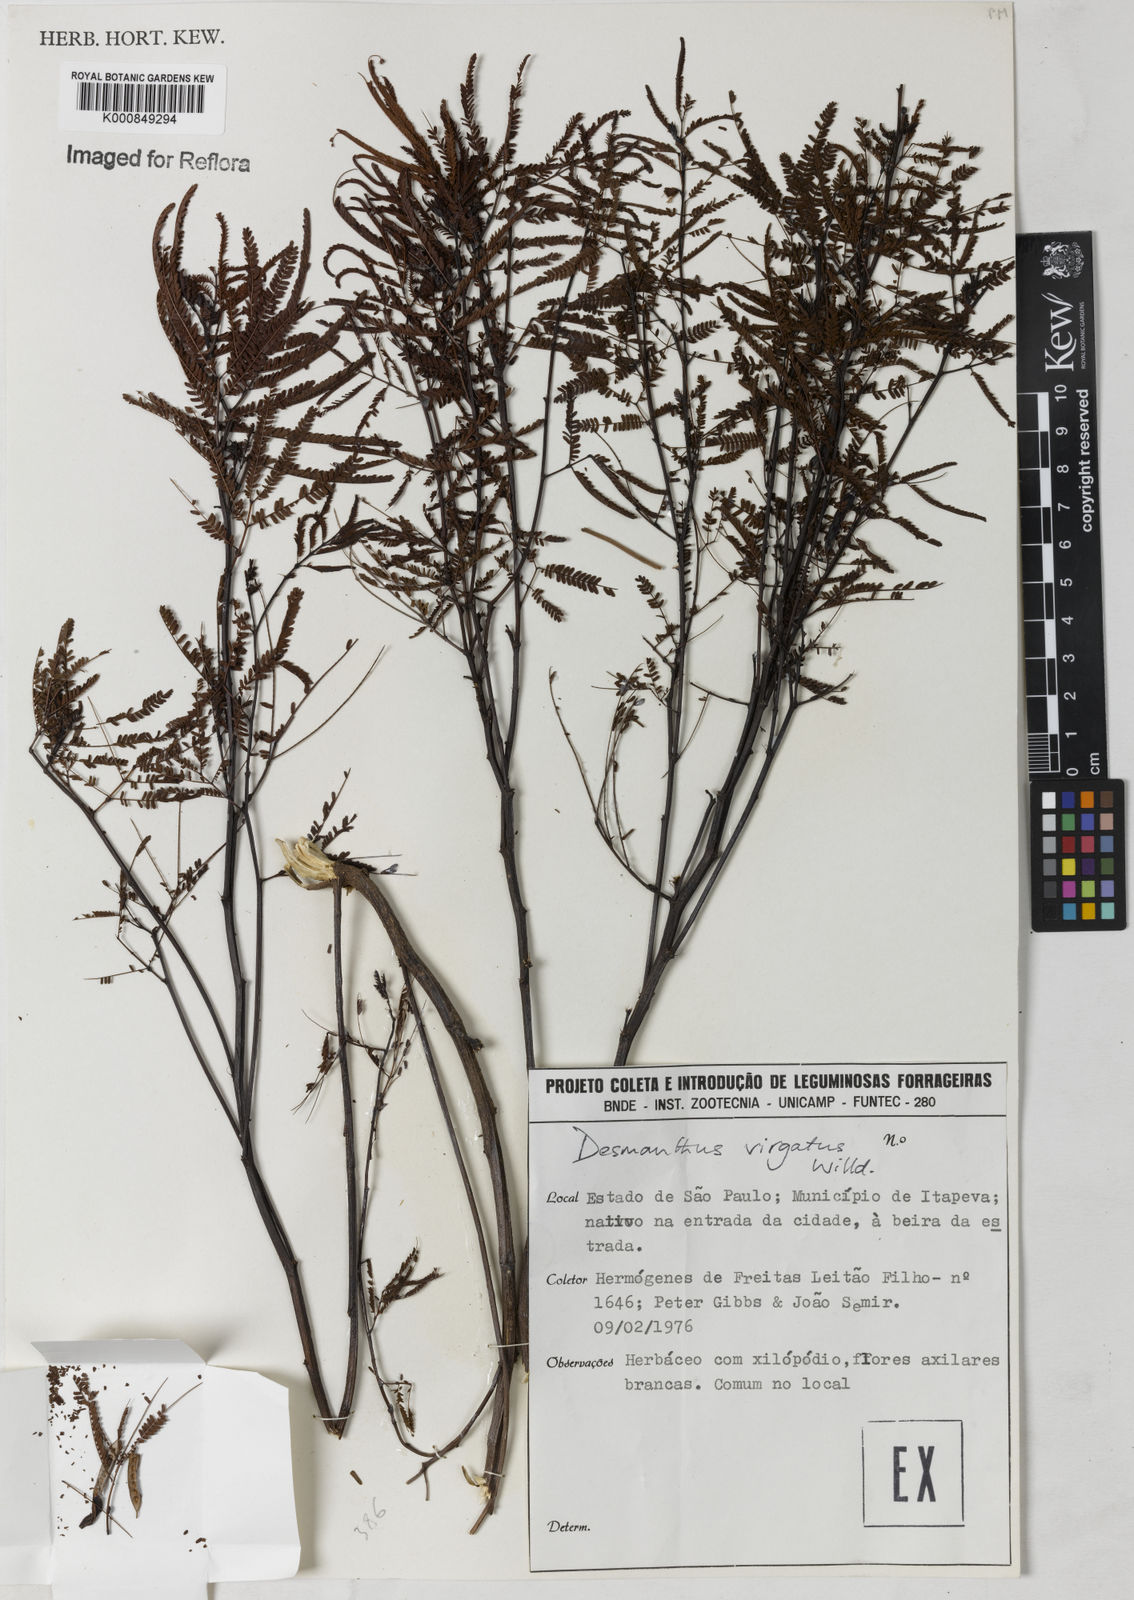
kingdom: Plantae
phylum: Tracheophyta
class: Magnoliopsida
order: Fabales
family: Fabaceae
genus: Desmanthus
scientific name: Desmanthus virgatus
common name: Wild tantan
